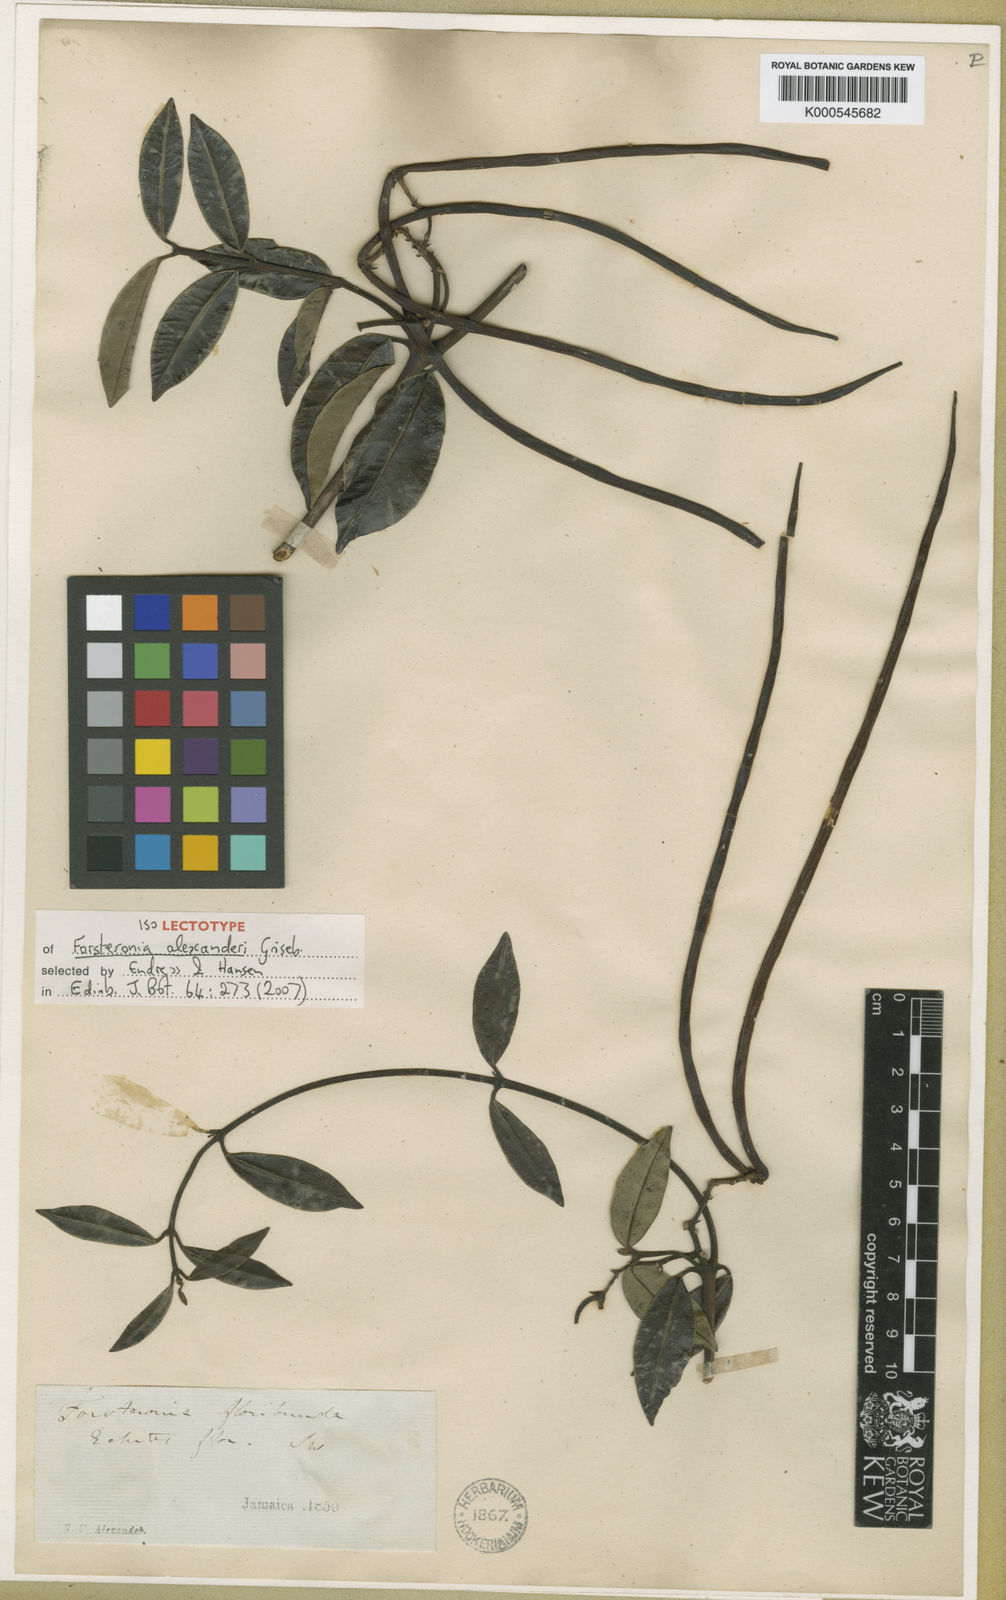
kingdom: Plantae
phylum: Tracheophyta
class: Magnoliopsida
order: Gentianales
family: Apocynaceae
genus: Pinochia
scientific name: Pinochia floribunda
